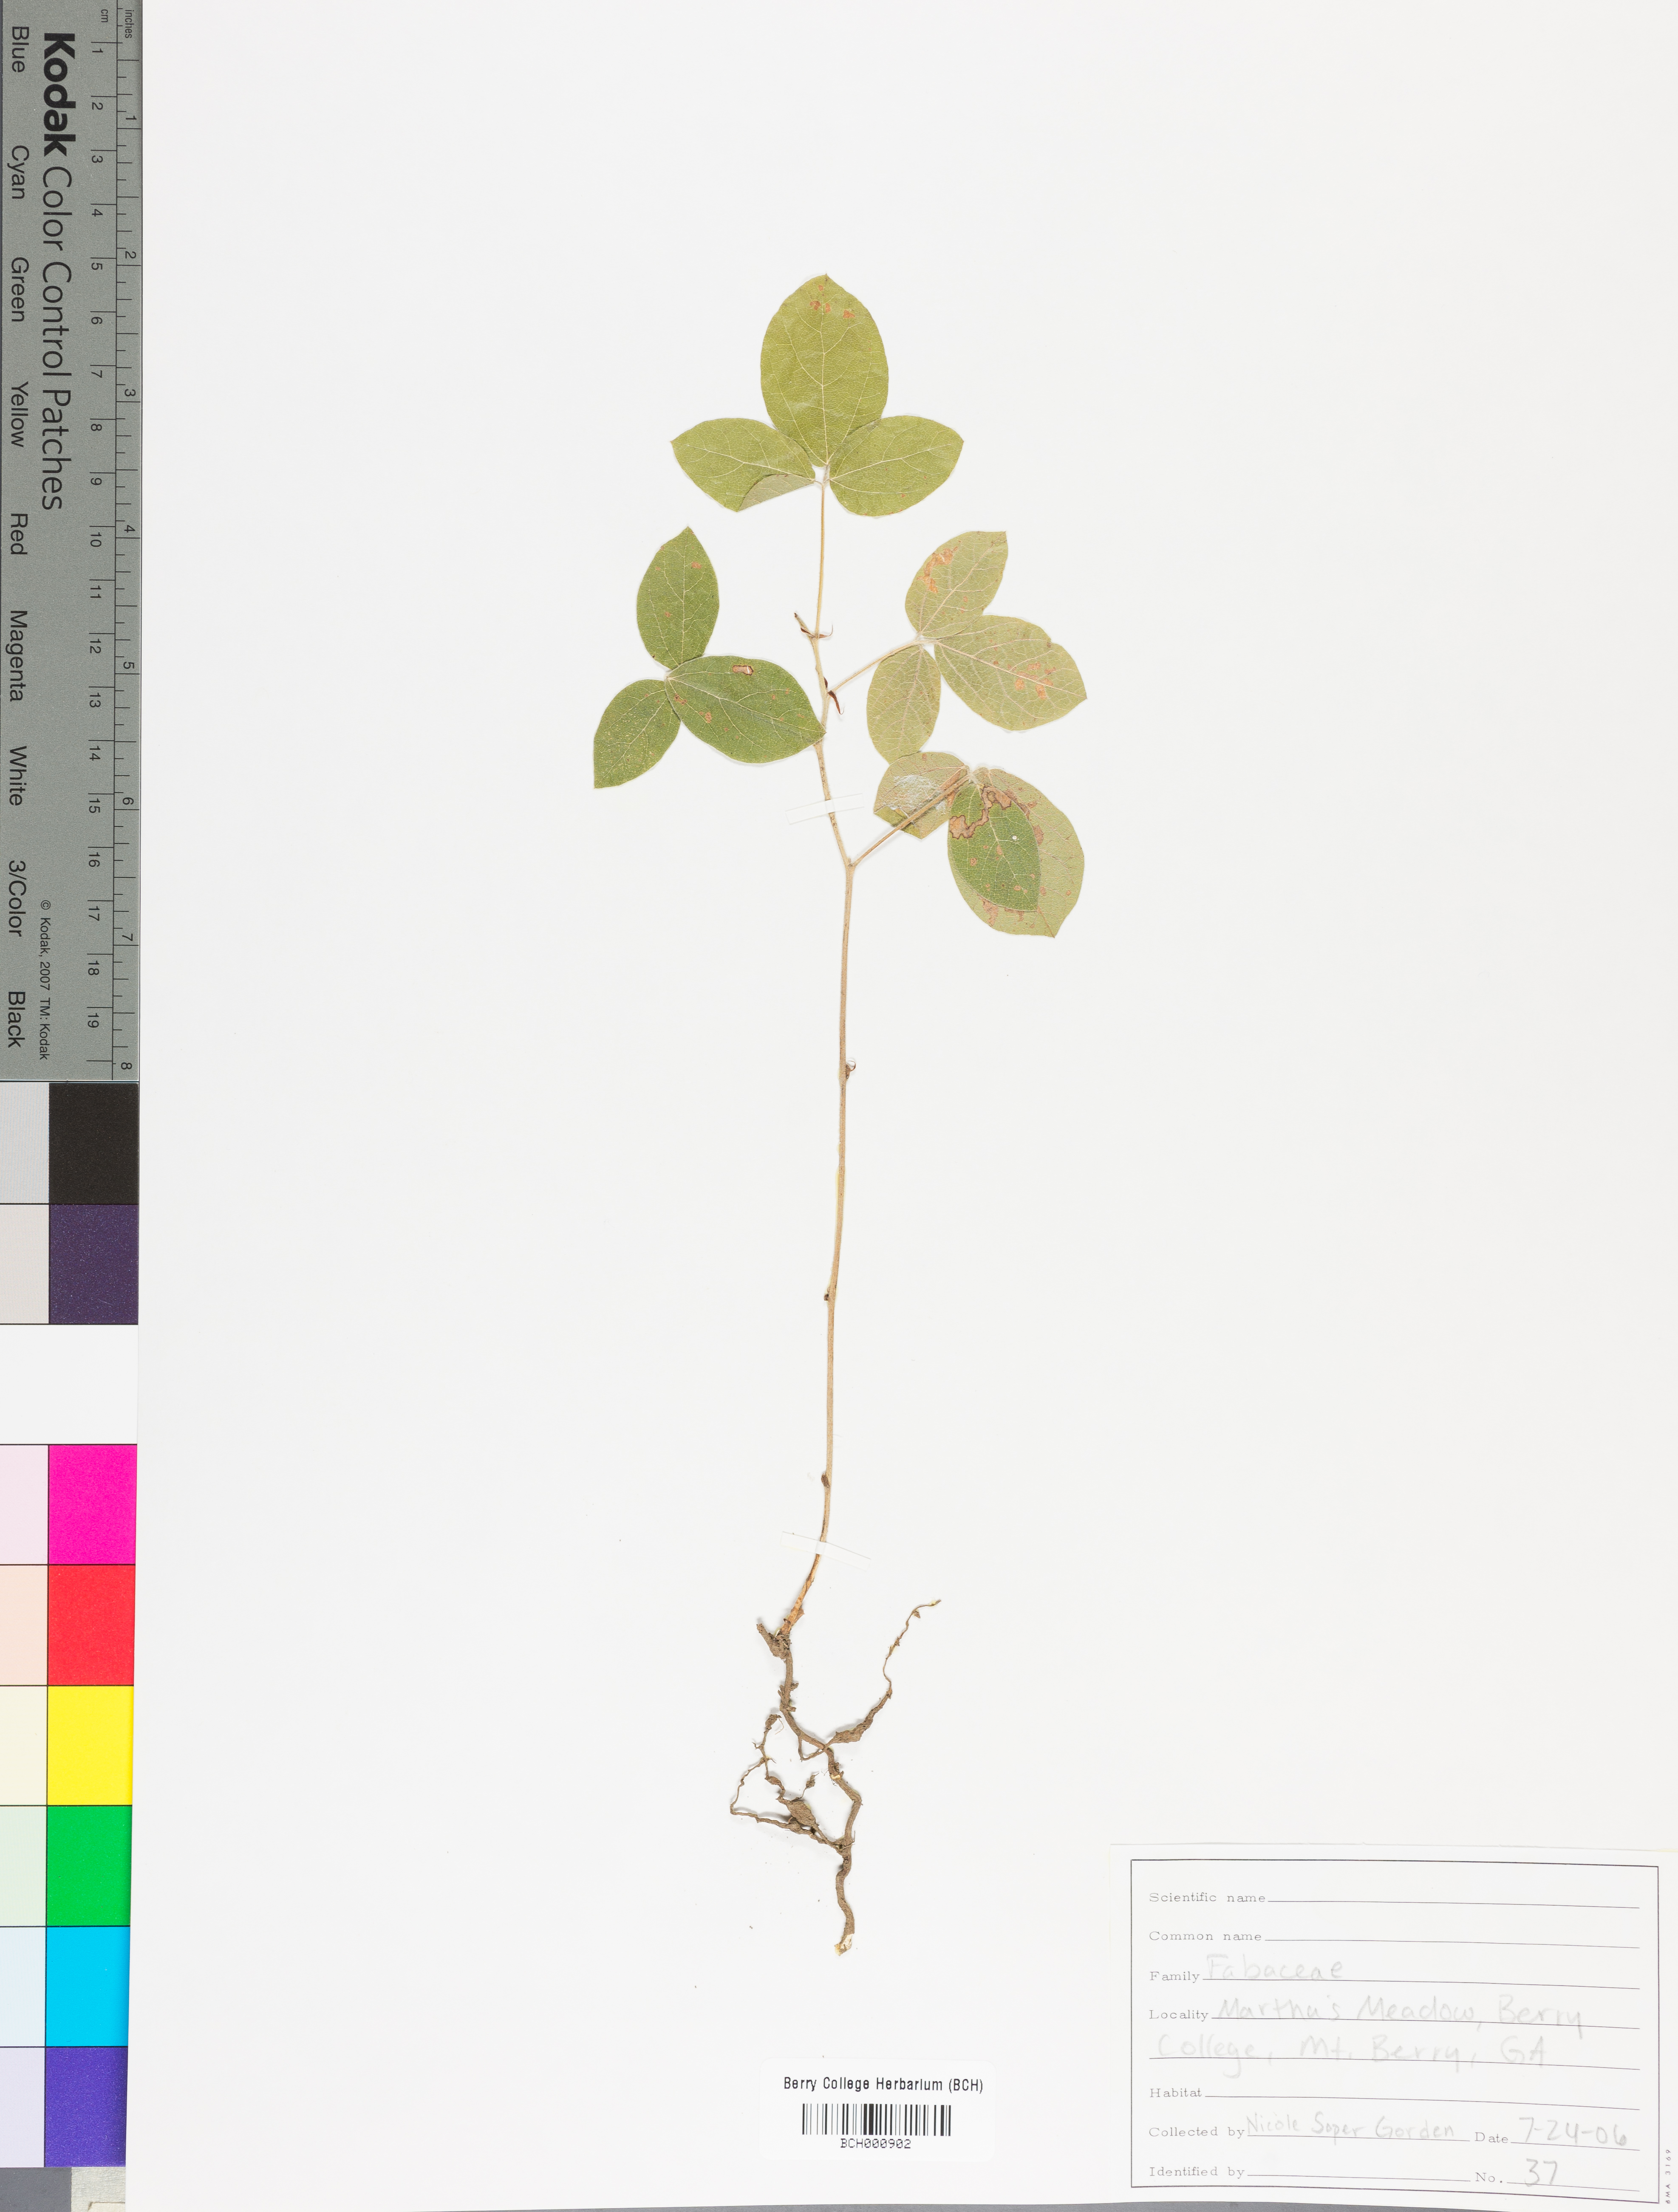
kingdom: Plantae
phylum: Tracheophyta
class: Magnoliopsida
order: Lamiales
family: Acanthaceae
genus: Adhatoda
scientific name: Adhatoda
